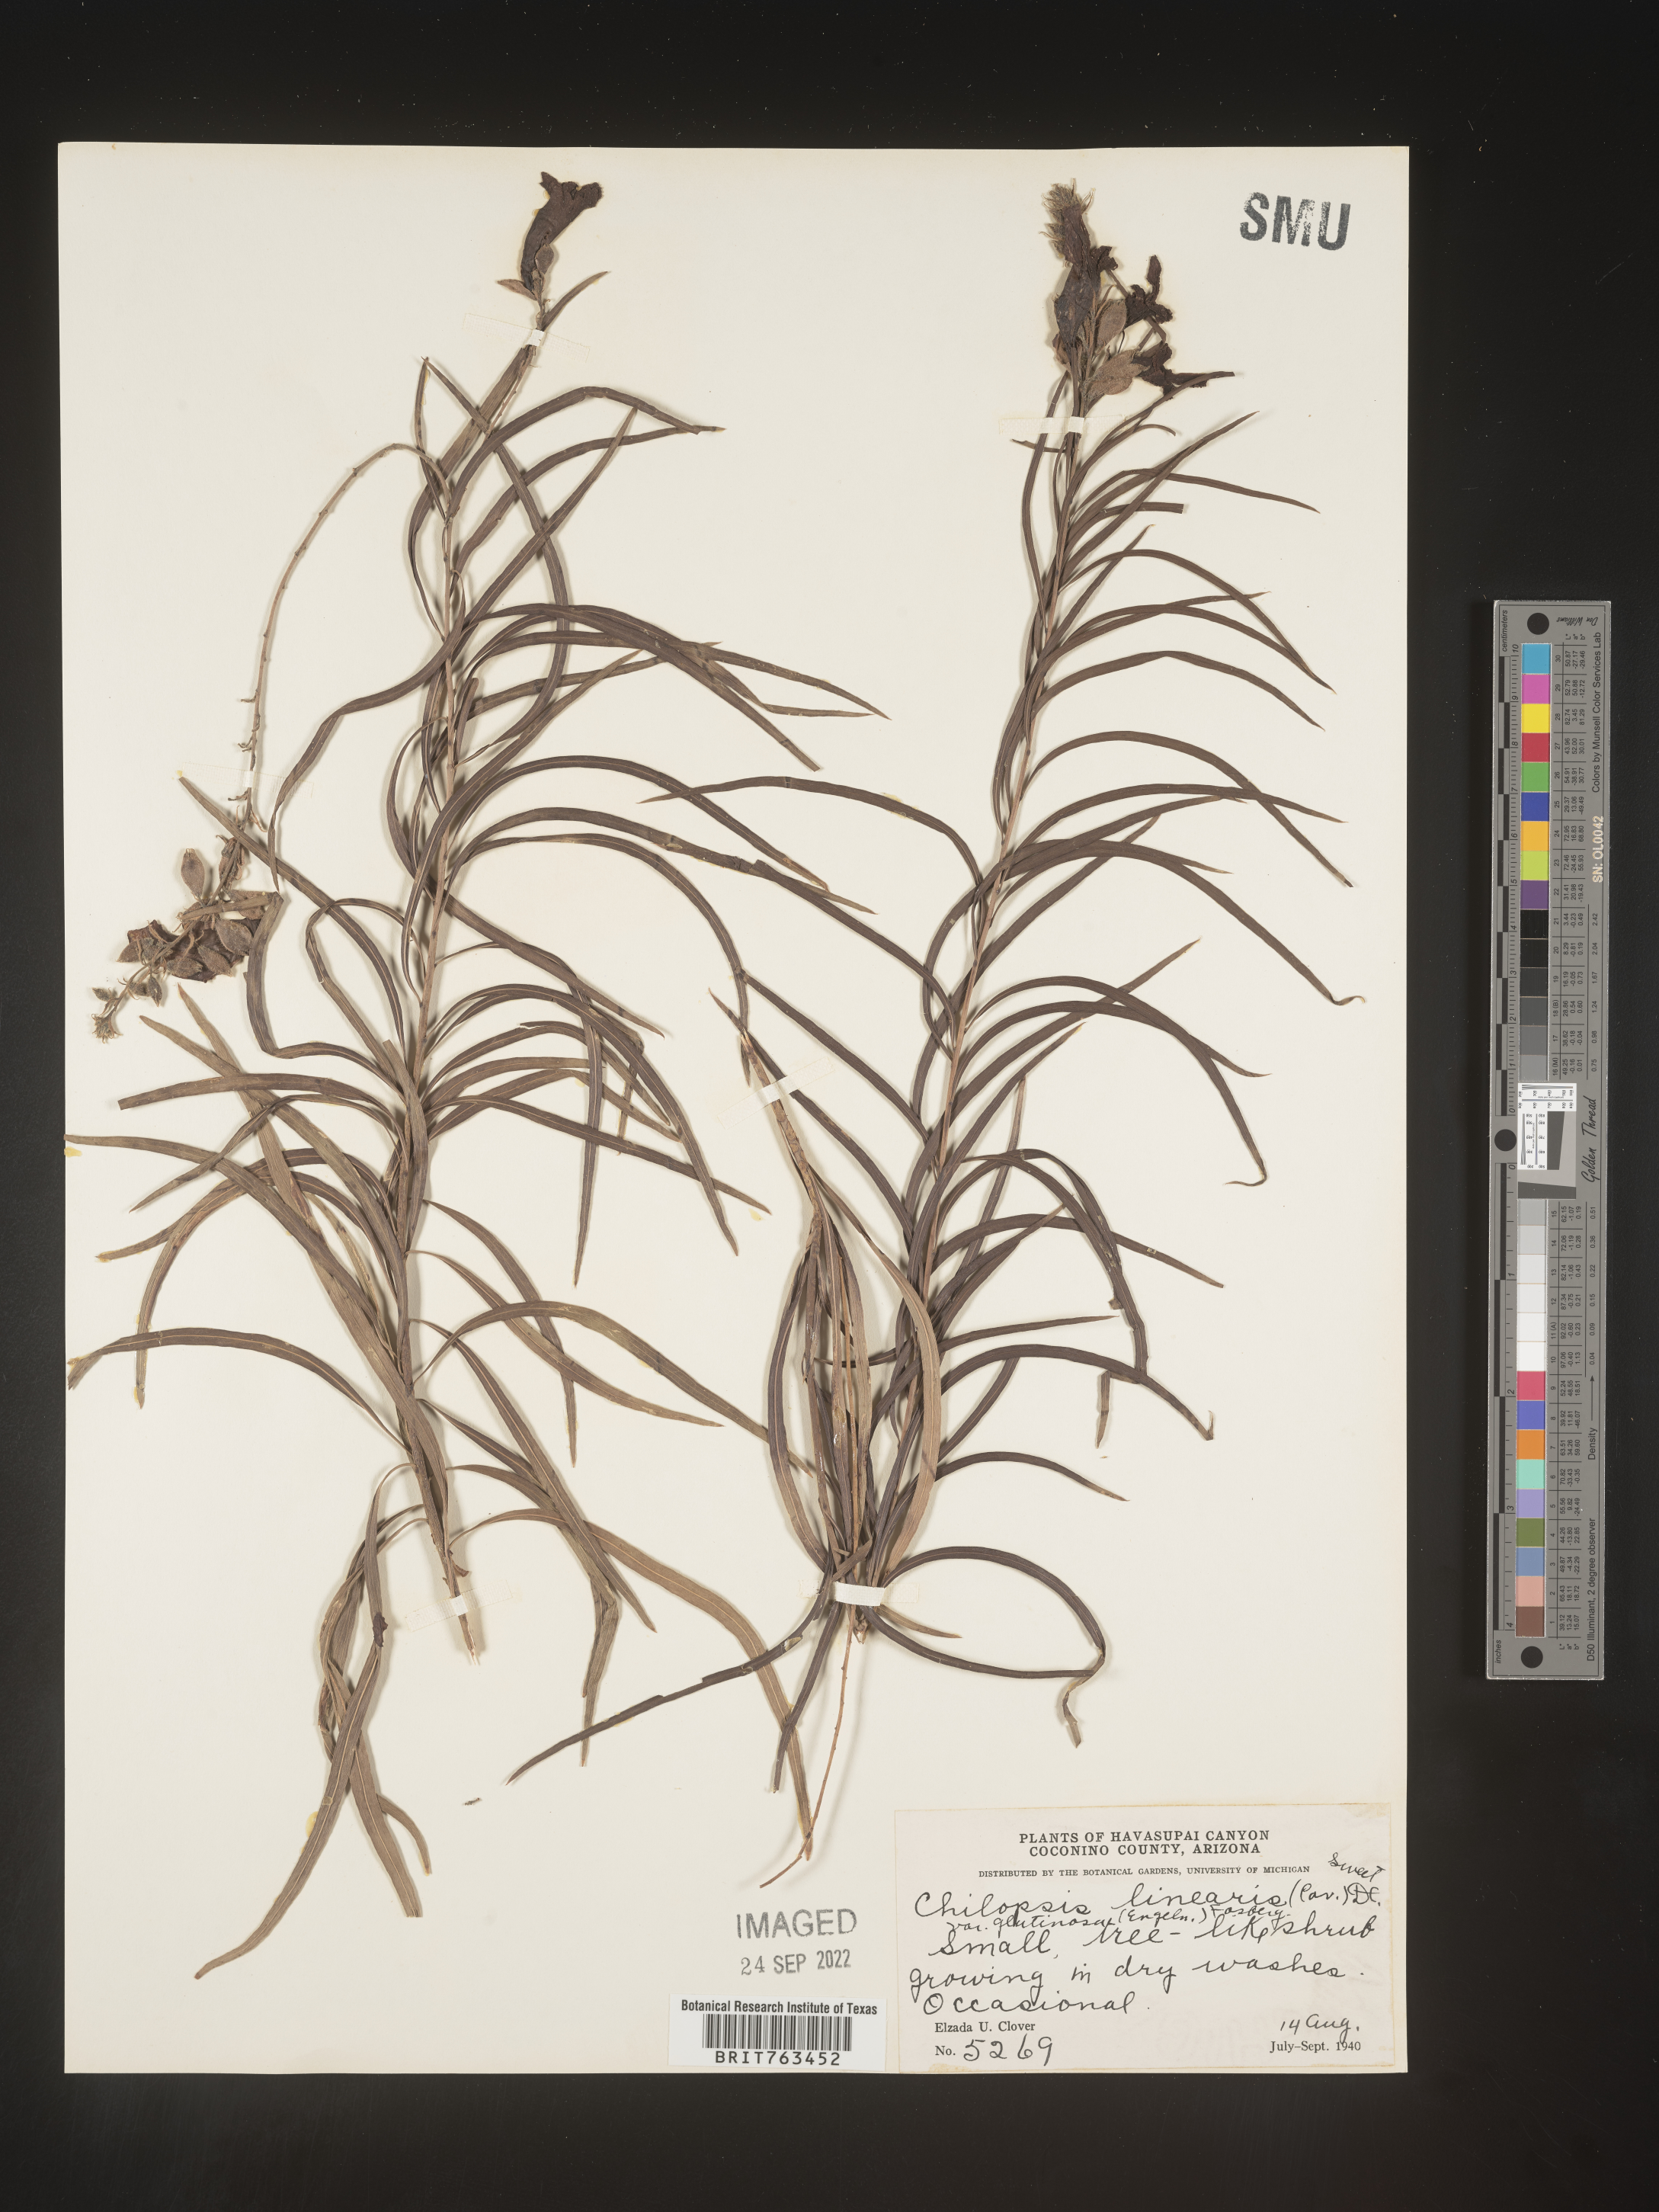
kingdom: Plantae
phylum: Tracheophyta
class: Magnoliopsida
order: Lamiales
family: Bignoniaceae
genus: Chilopsis
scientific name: Chilopsis linearis
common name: Desert-willow
